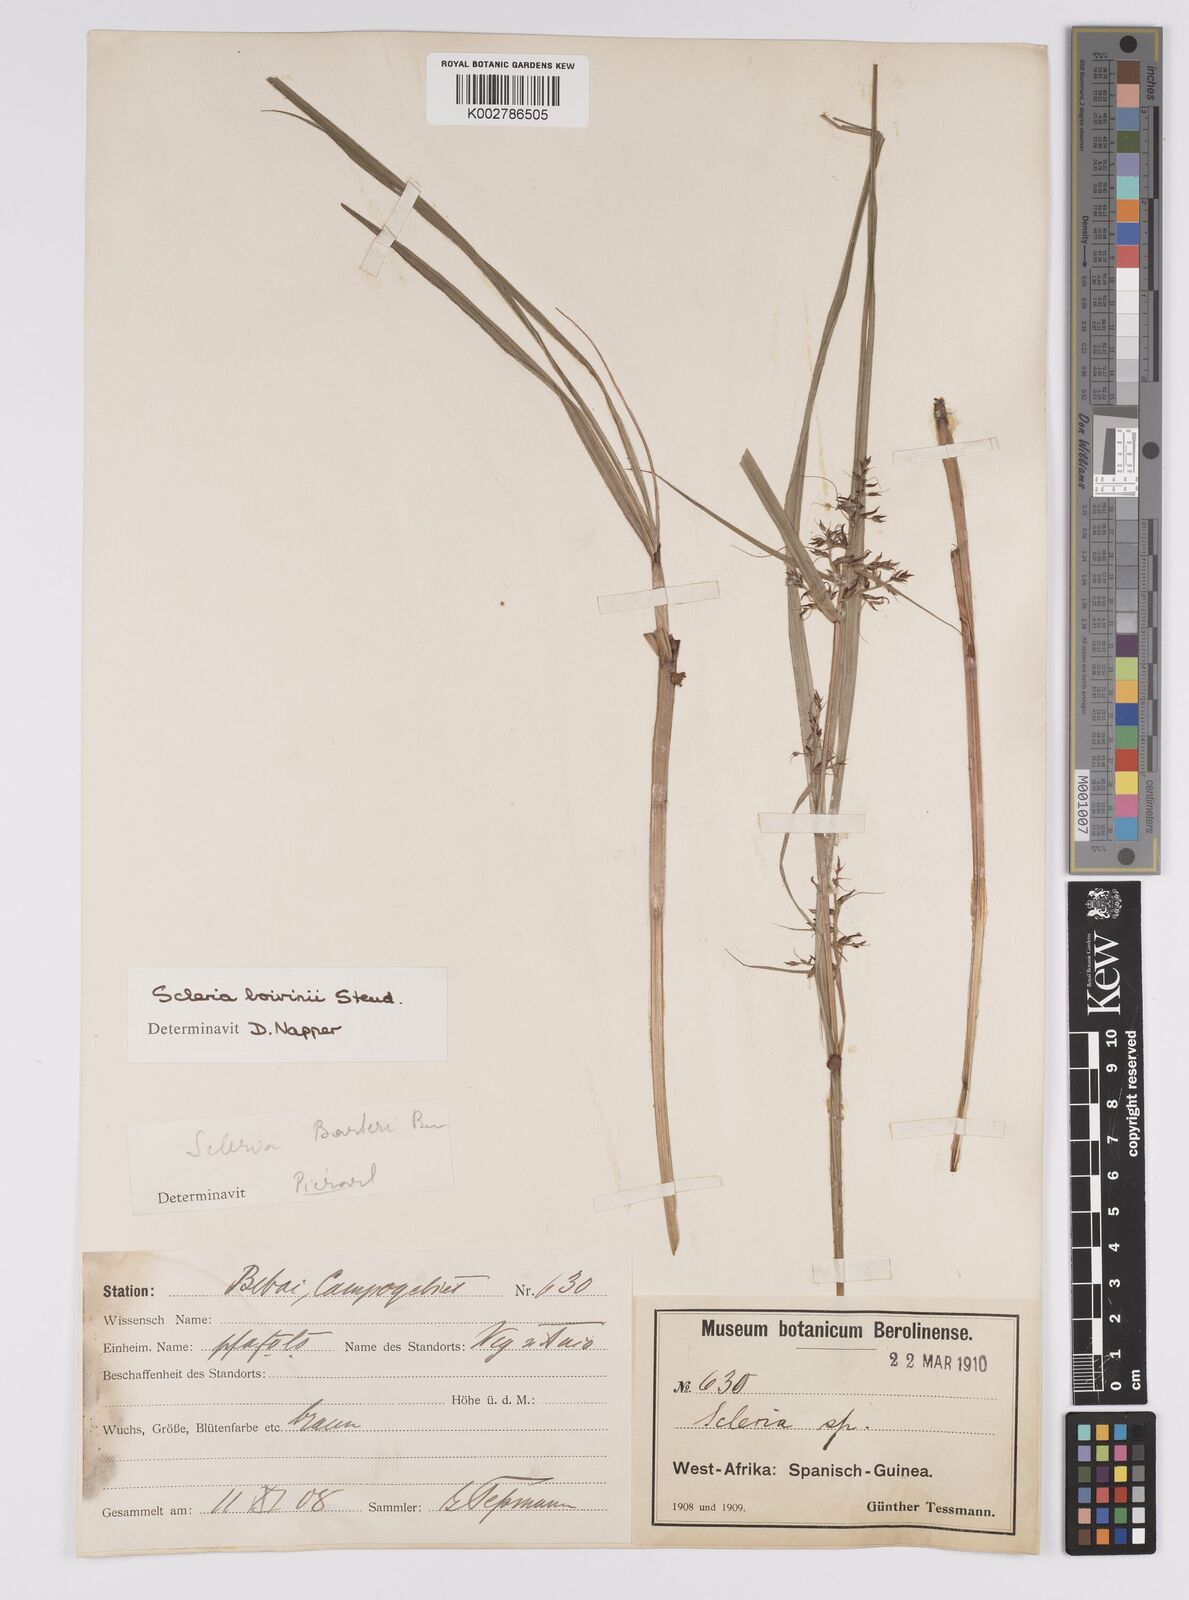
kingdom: Plantae
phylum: Tracheophyta
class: Liliopsida
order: Poales
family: Cyperaceae
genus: Scleria
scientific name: Scleria boivinii
